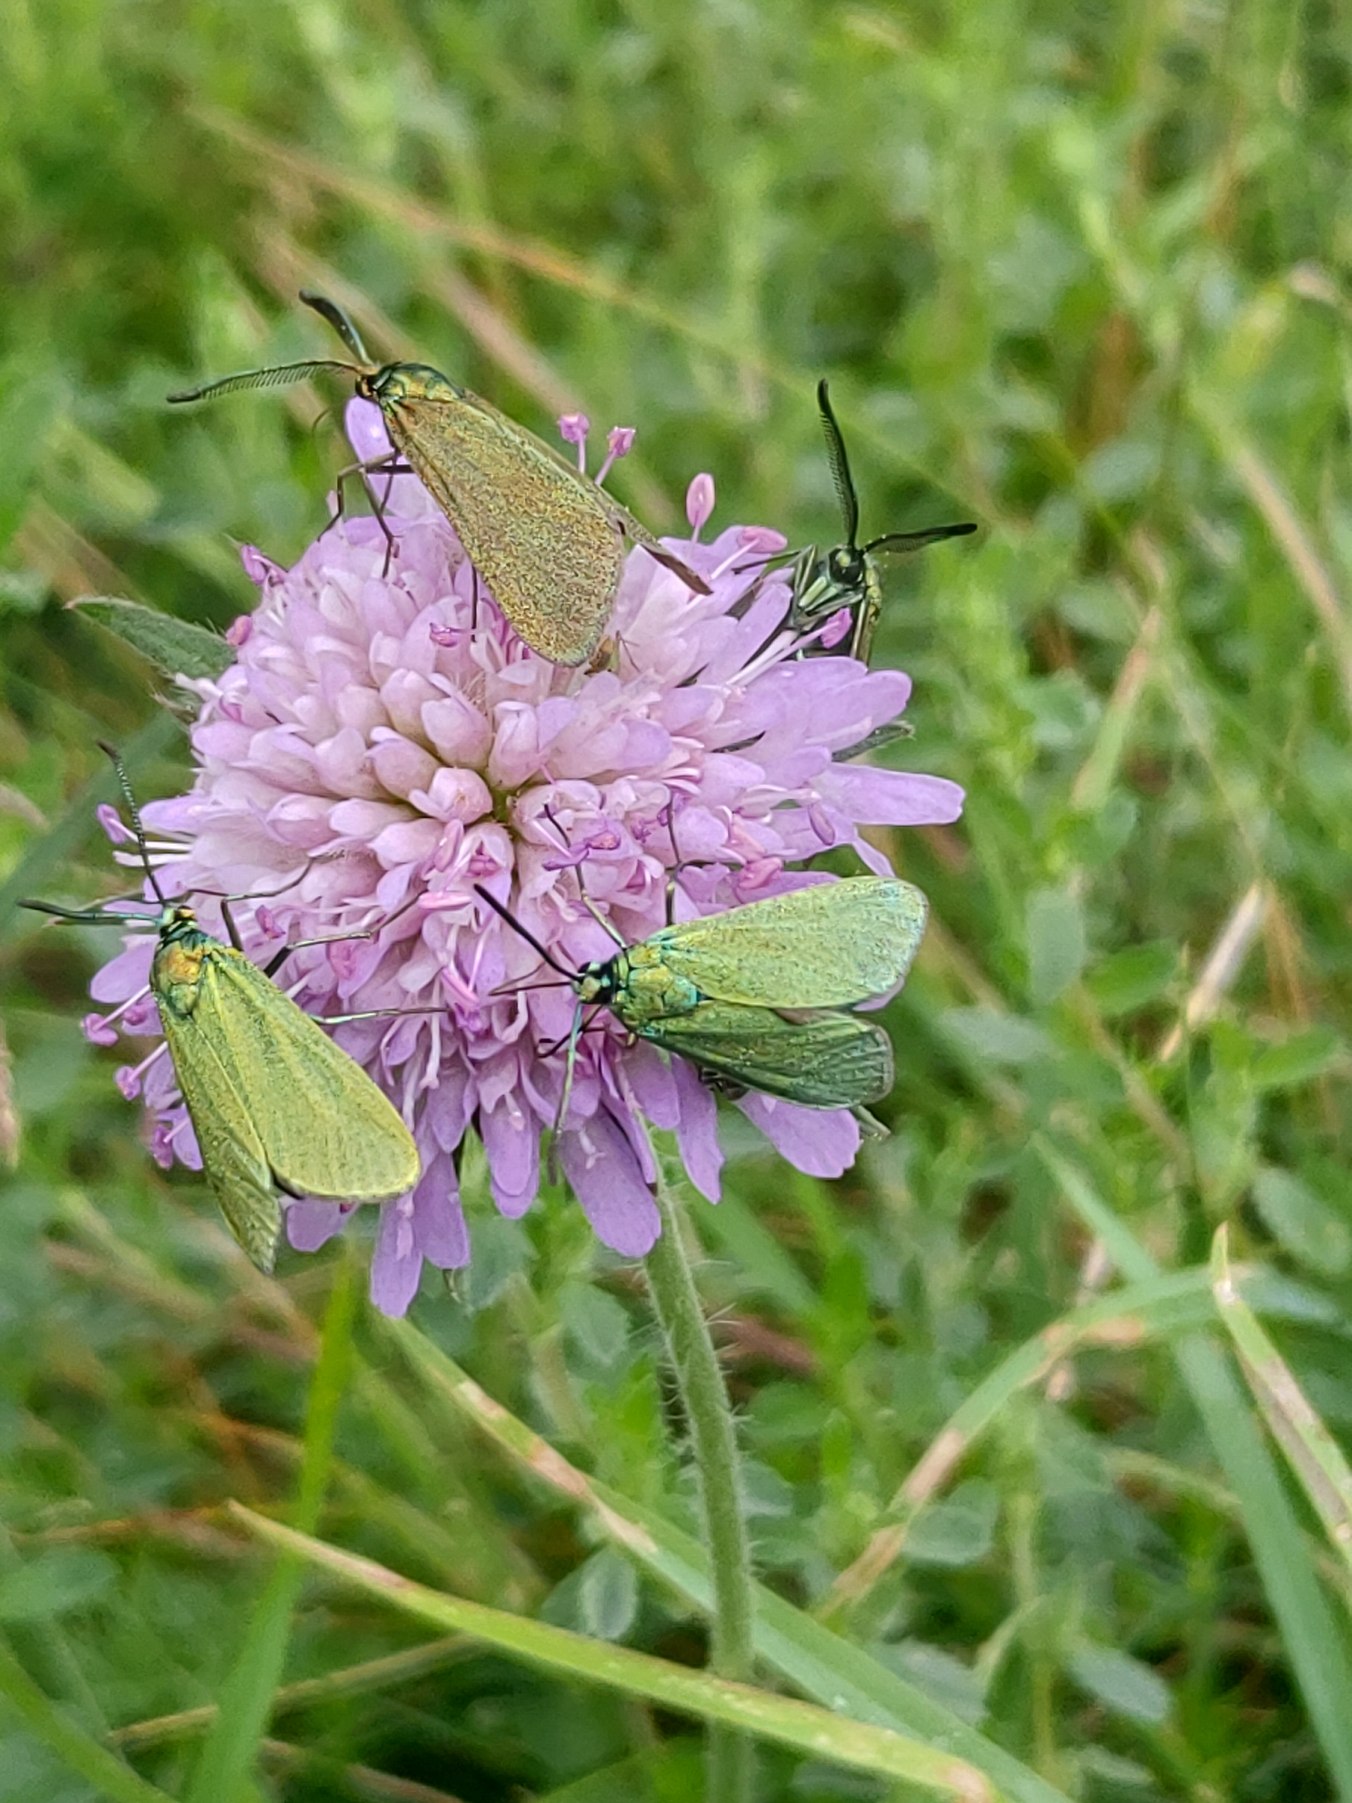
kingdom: Animalia
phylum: Arthropoda
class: Insecta
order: Lepidoptera
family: Zygaenidae
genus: Adscita
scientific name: Adscita statices
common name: Metalvinge
